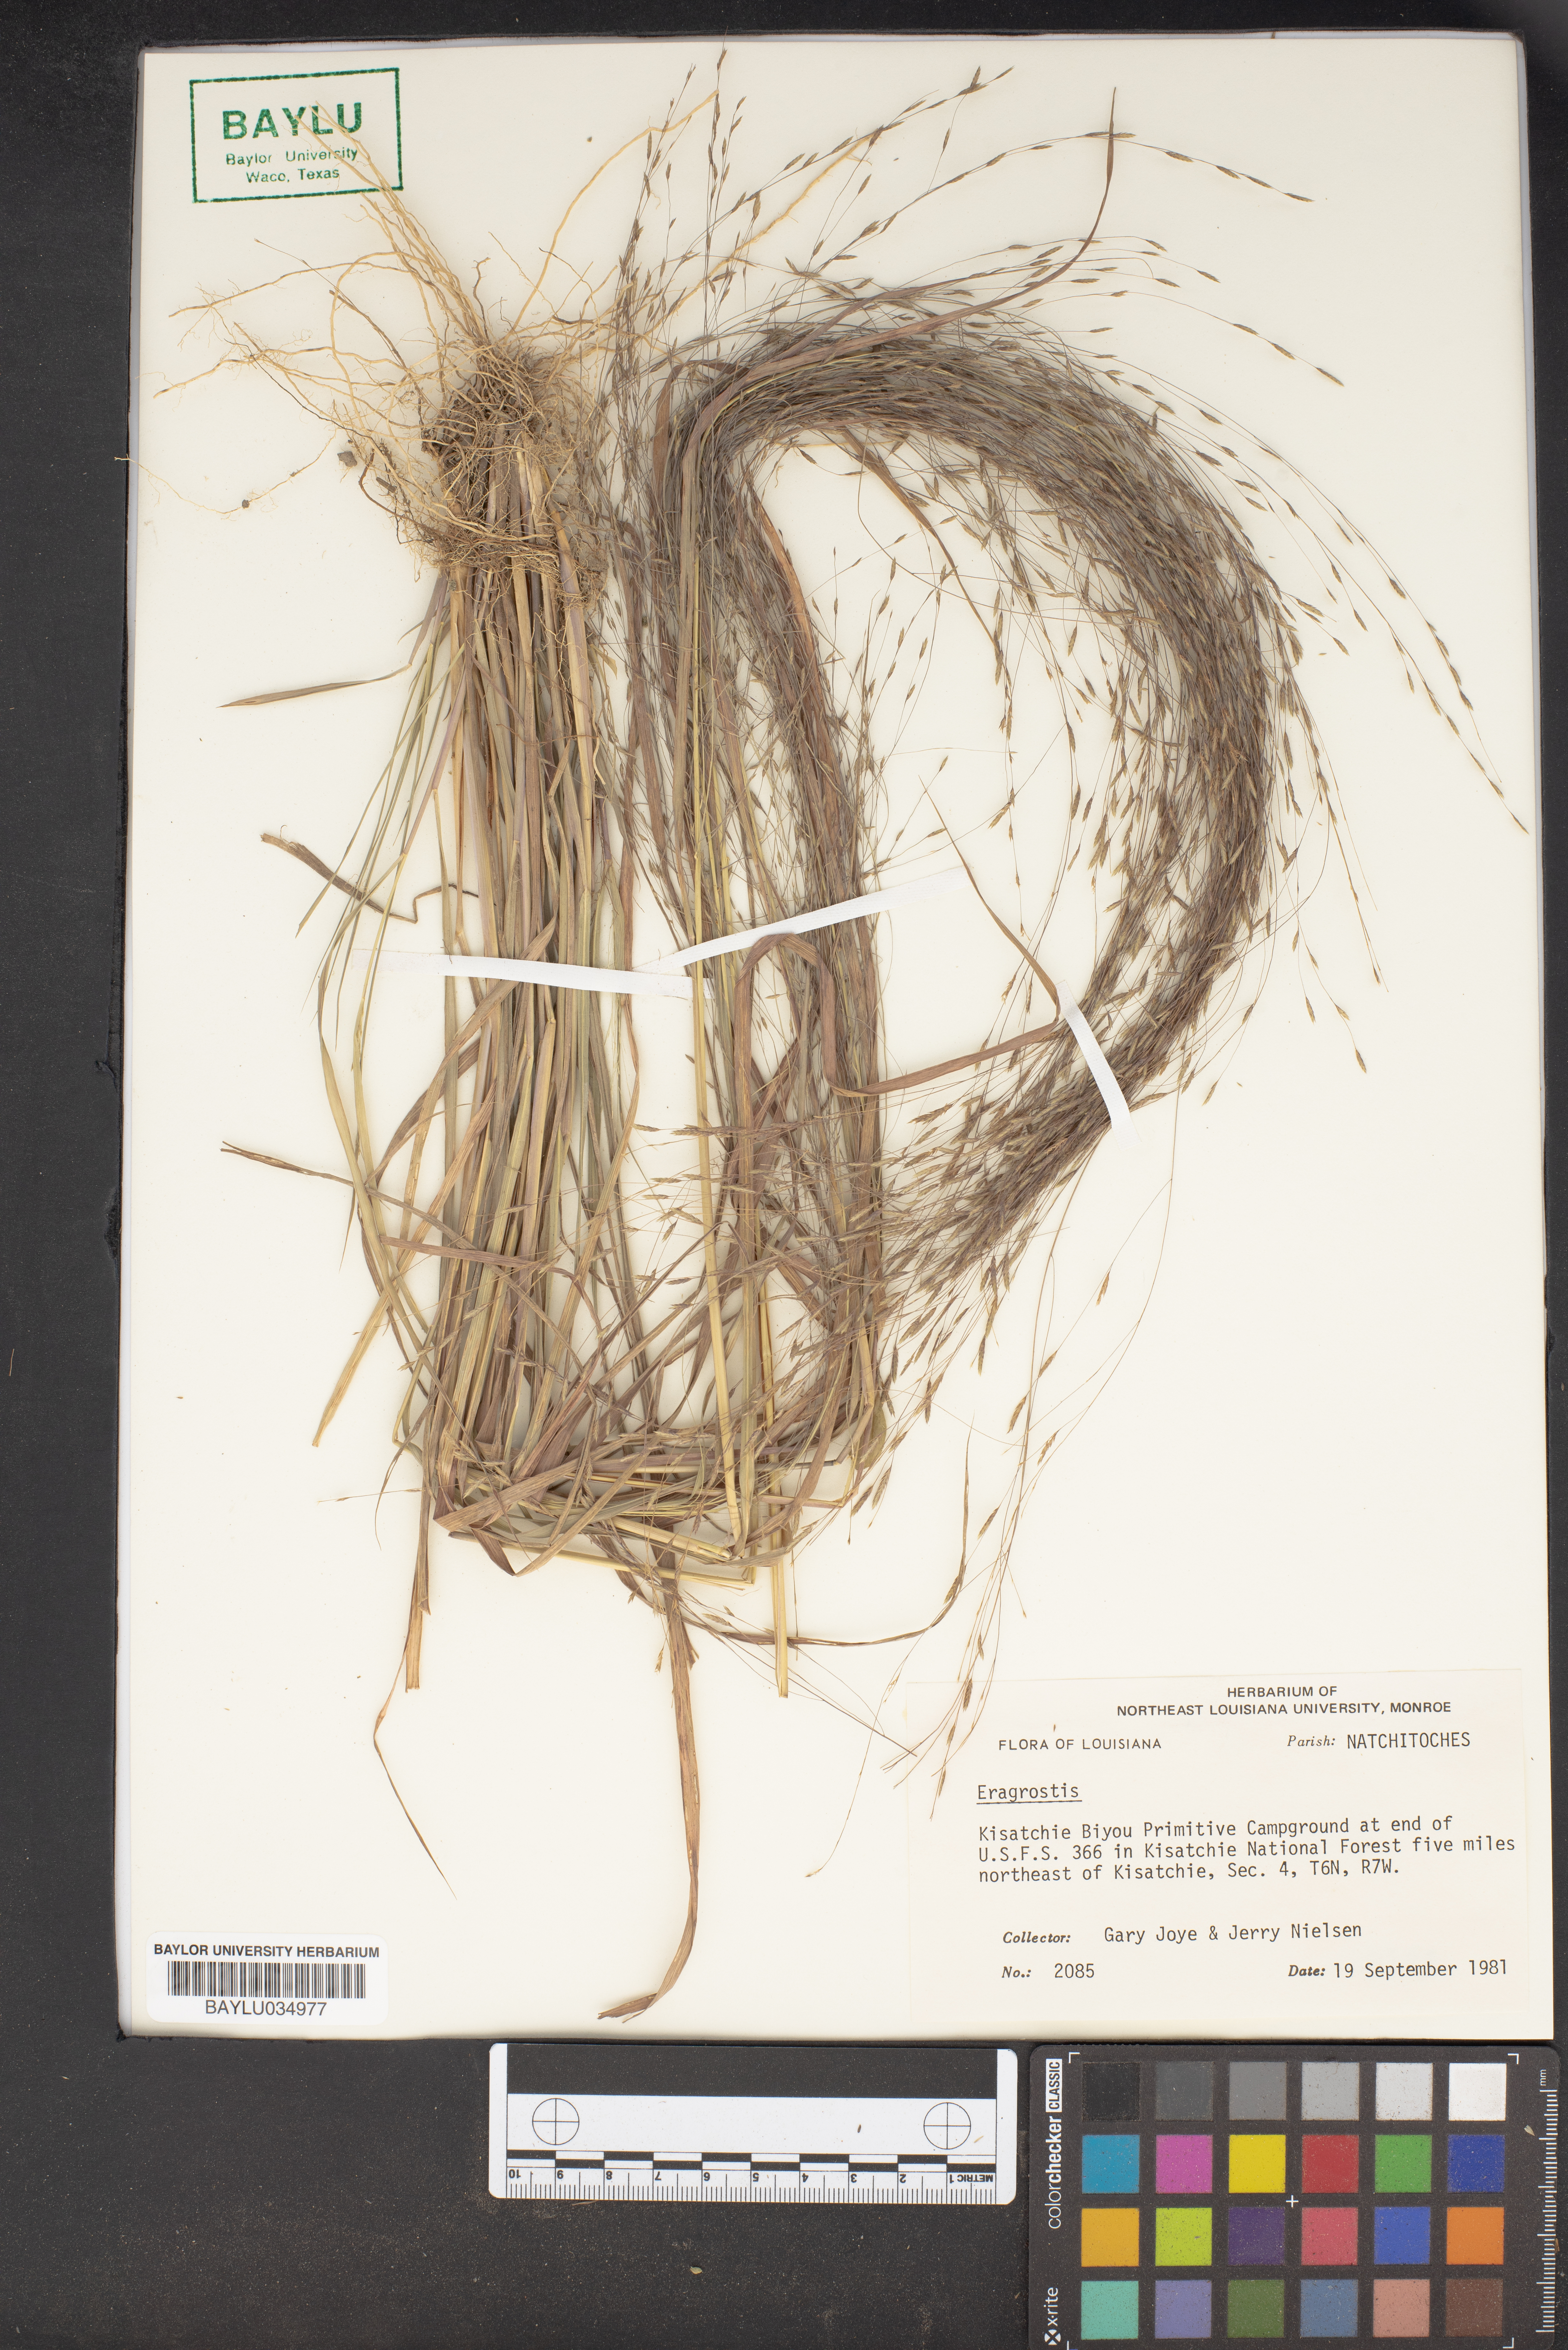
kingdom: Plantae
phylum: Tracheophyta
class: Liliopsida
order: Poales
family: Poaceae
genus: Eragrostis
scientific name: Eragrostis
